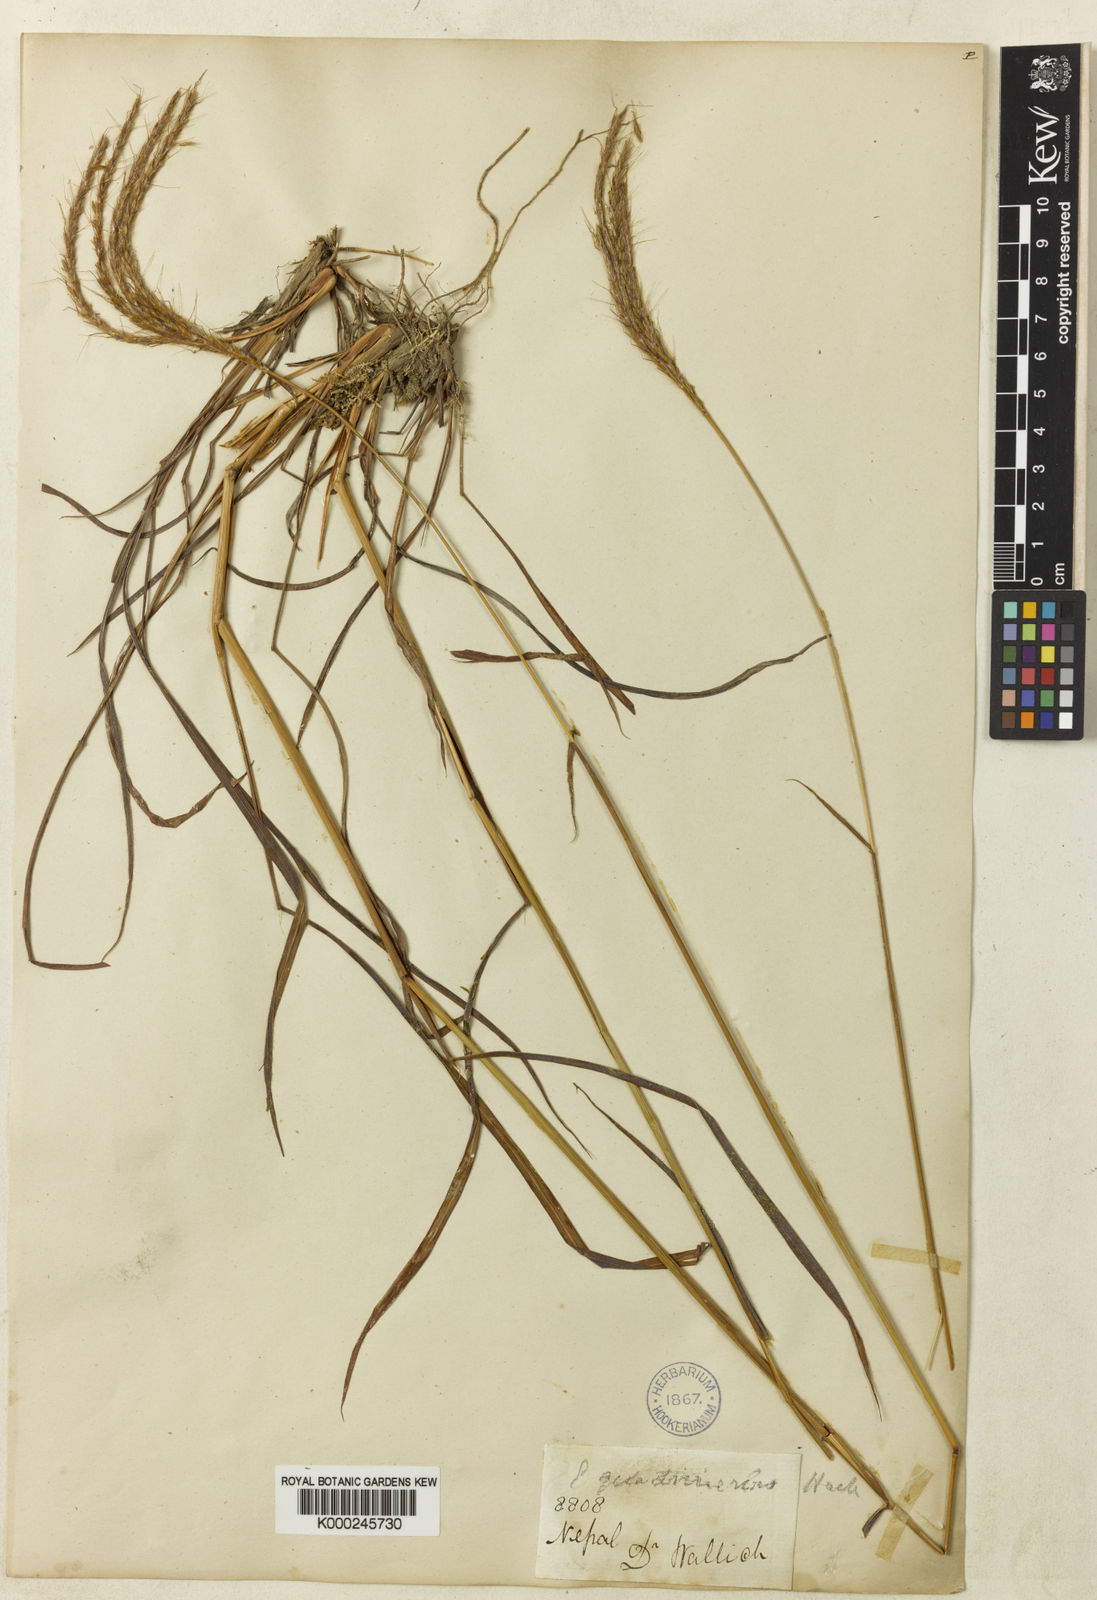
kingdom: Plantae
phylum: Tracheophyta
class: Liliopsida
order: Poales
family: Poaceae
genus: Pseudopogonatherum
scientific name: Pseudopogonatherum quadrinerve
